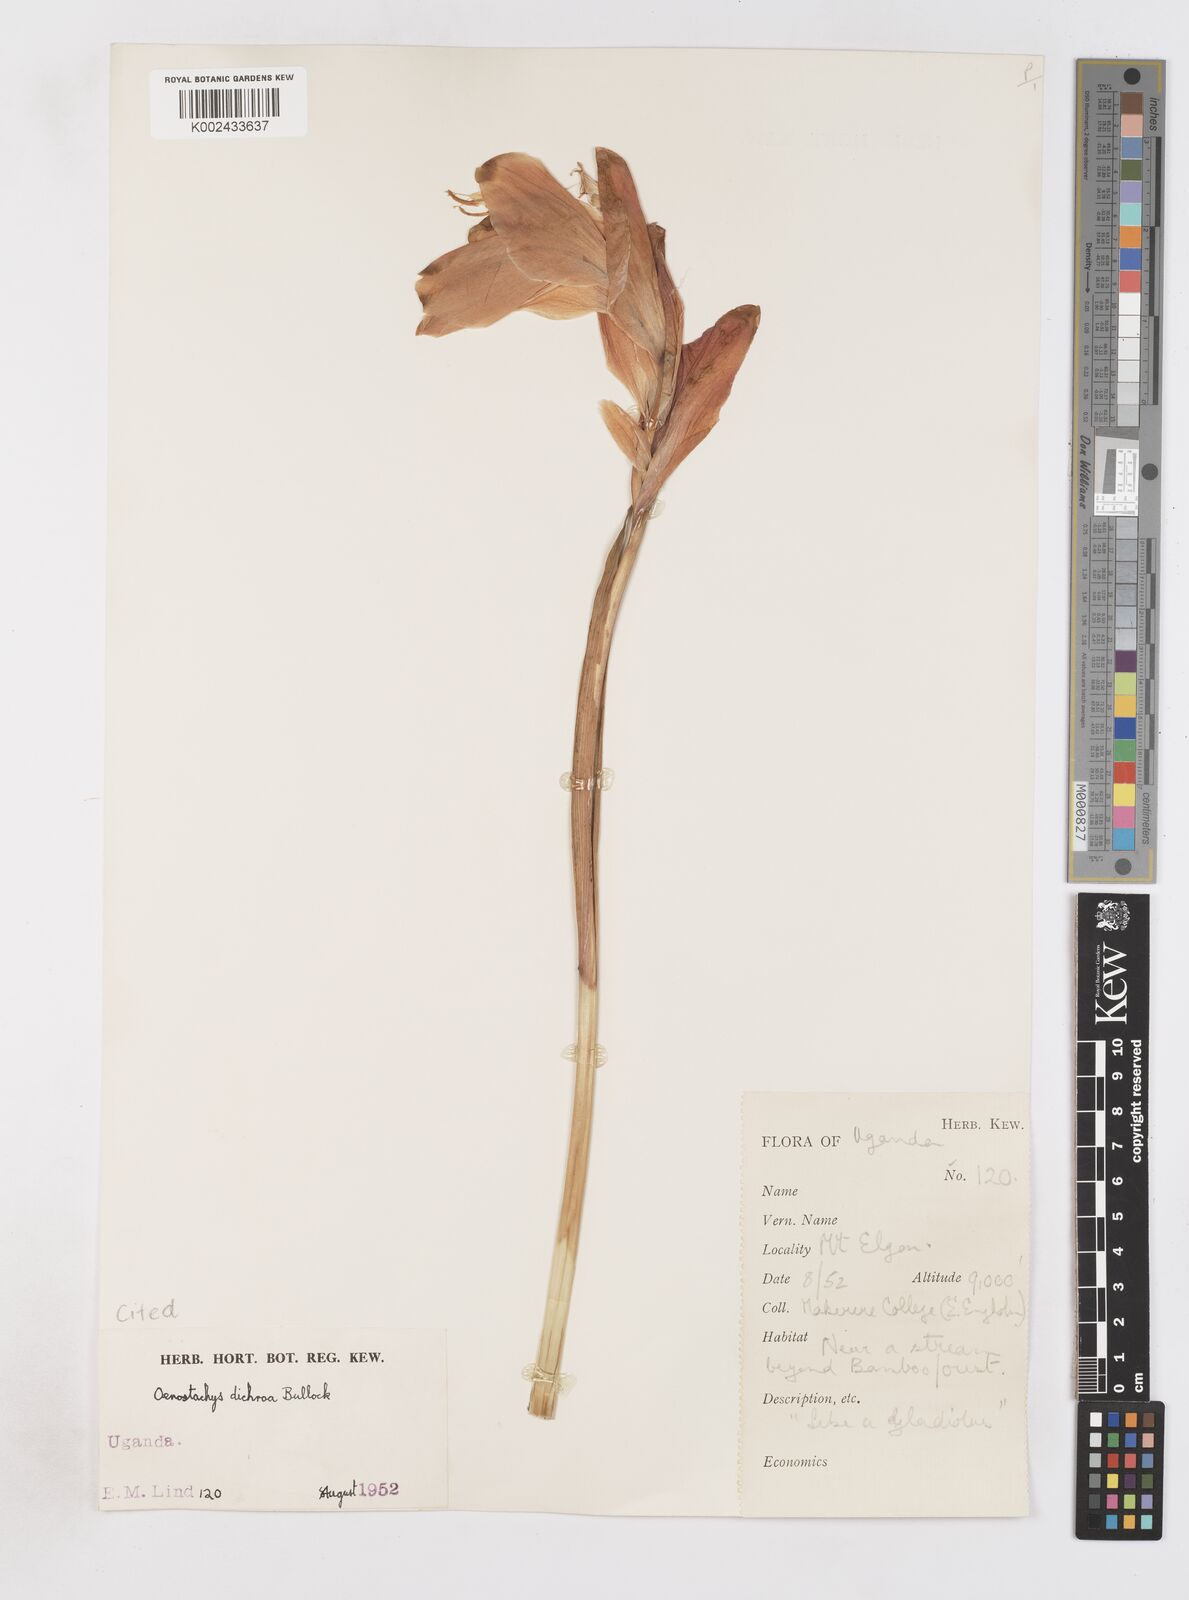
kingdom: Plantae
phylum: Tracheophyta
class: Liliopsida
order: Asparagales
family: Iridaceae
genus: Gladiolus
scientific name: Gladiolus dichrous
